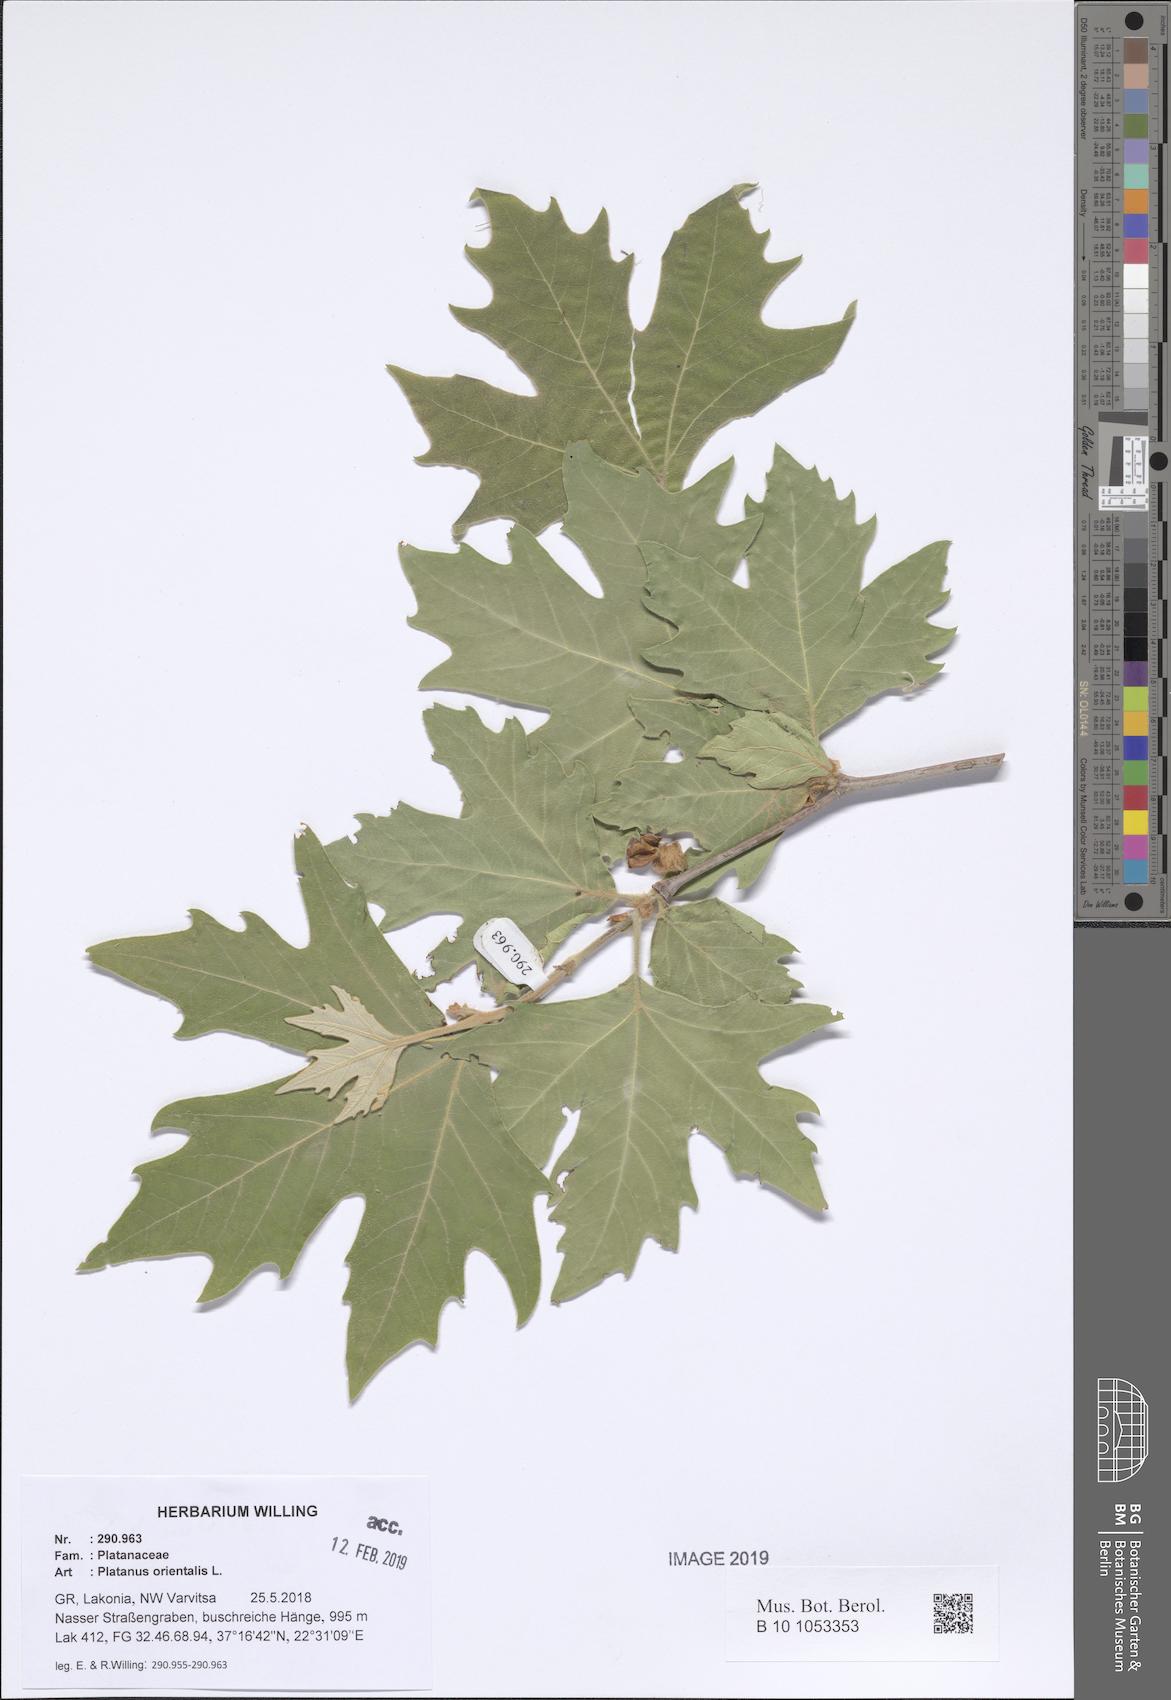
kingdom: Plantae
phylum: Tracheophyta
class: Magnoliopsida
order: Proteales
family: Platanaceae
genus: Platanus
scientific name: Platanus orientalis
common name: Oriental plane
